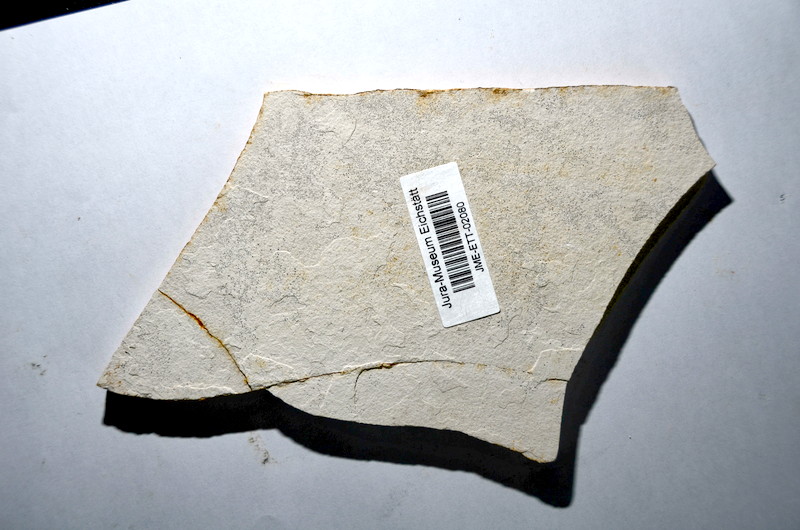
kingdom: Animalia
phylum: Chordata
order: Amiiformes
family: Amiidae
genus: Amiopsis
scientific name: Amiopsis lepidota
